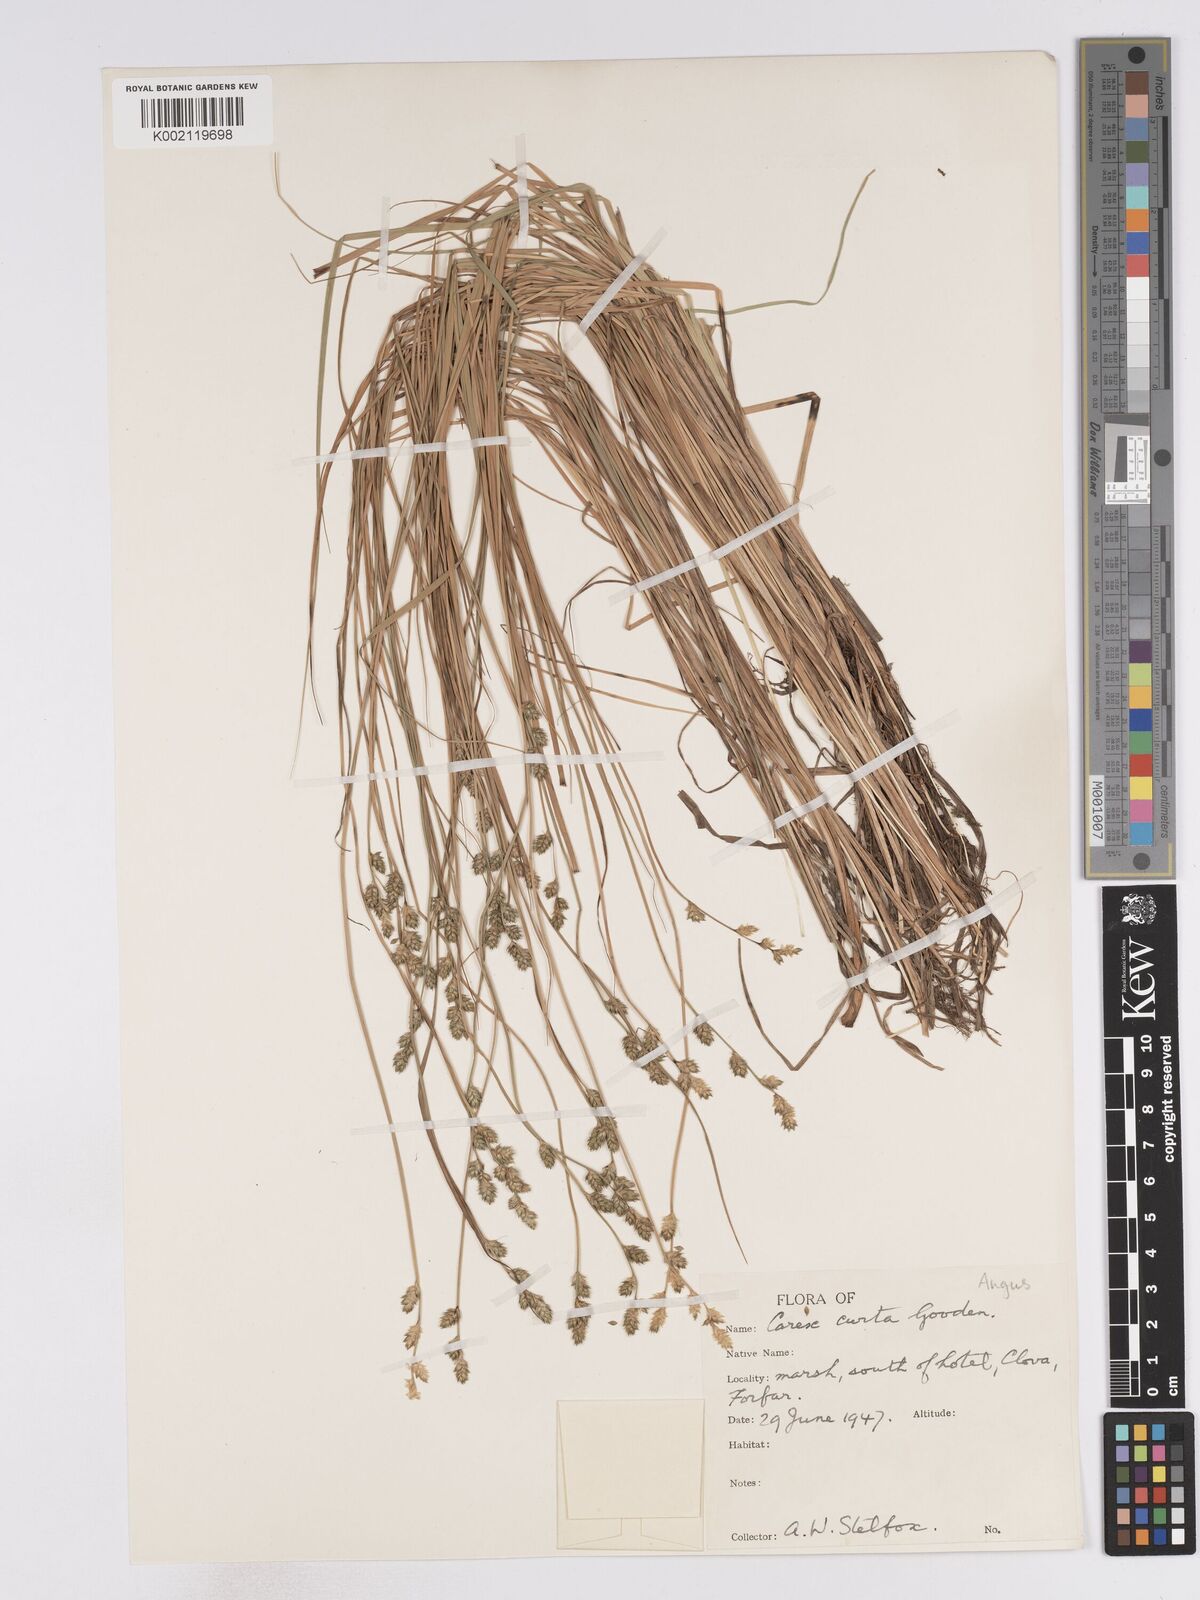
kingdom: Plantae
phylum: Tracheophyta
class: Liliopsida
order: Poales
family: Cyperaceae
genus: Carex
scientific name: Carex curta
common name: White sedge
